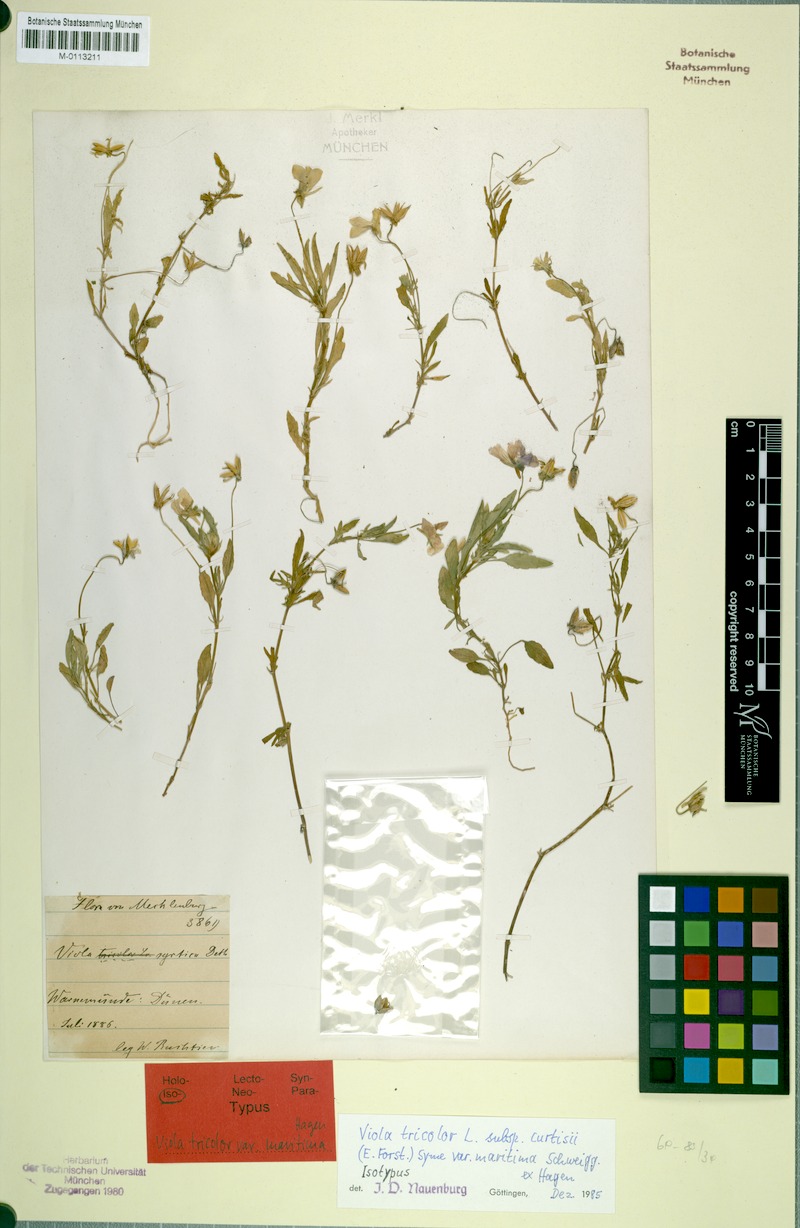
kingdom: Plantae
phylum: Tracheophyta
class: Magnoliopsida
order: Malpighiales
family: Violaceae
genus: Viola
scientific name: Viola tricolor
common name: Pansy
